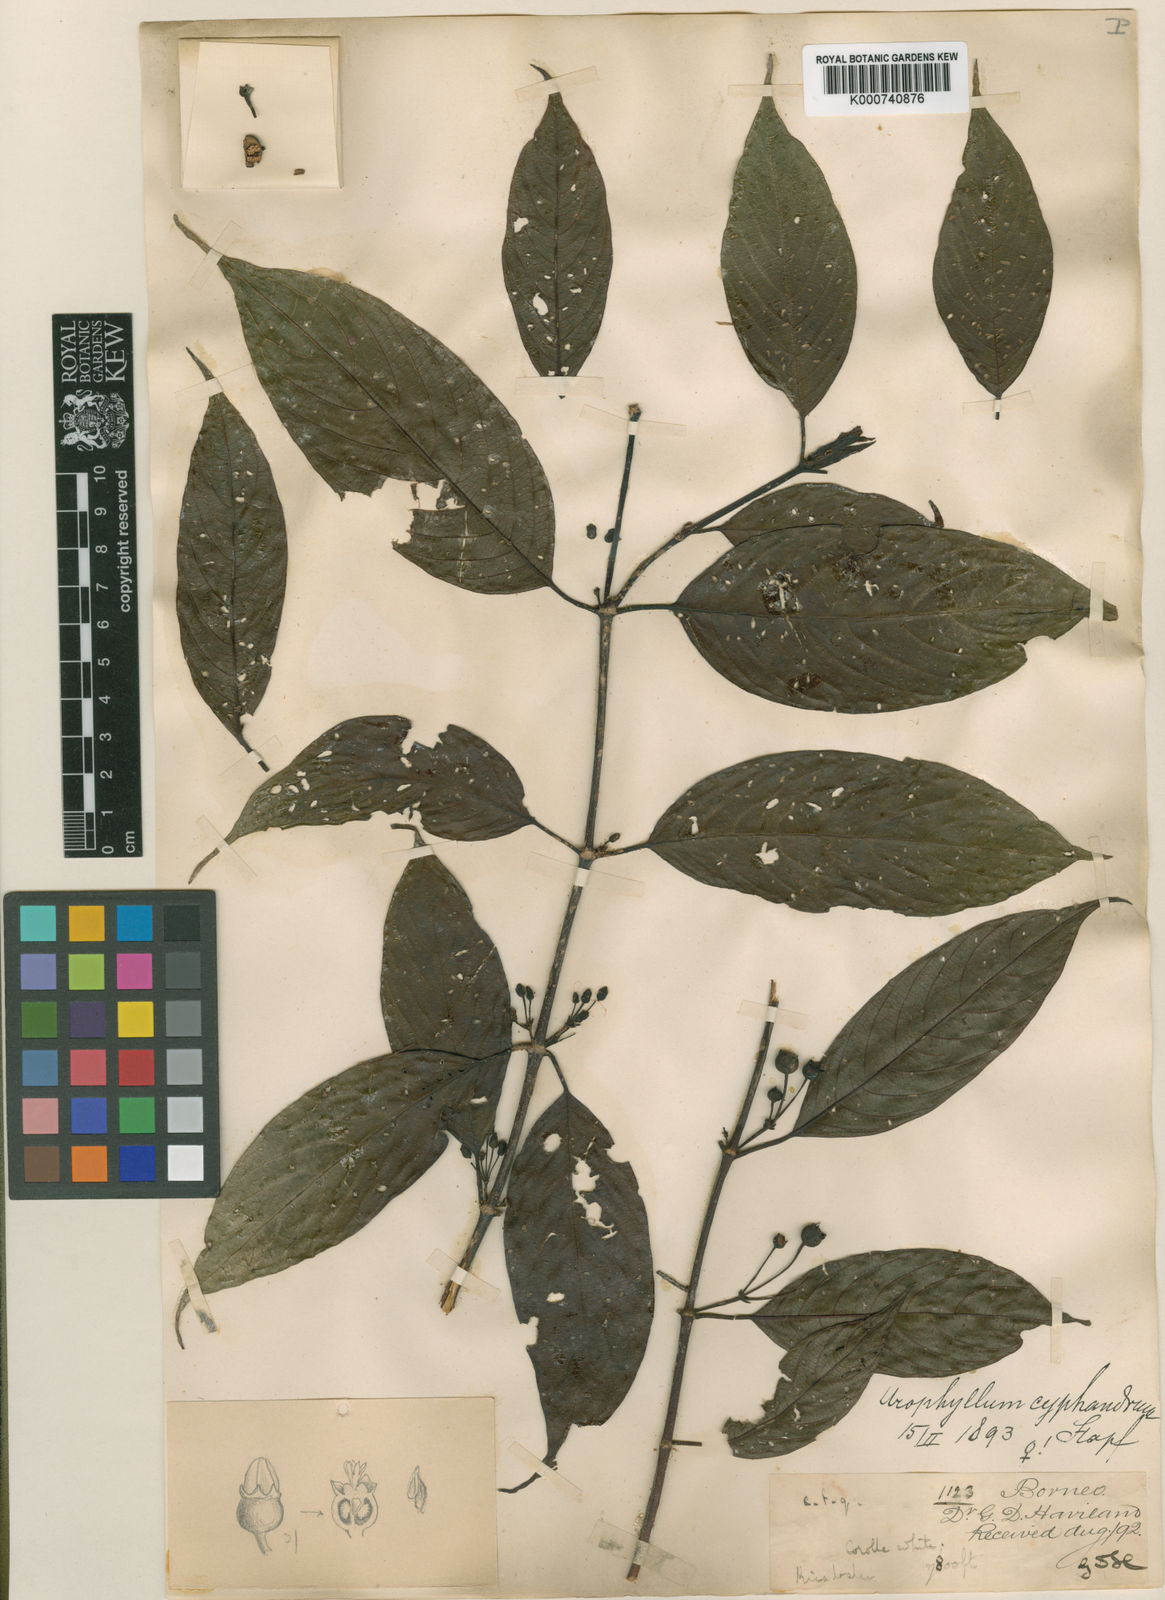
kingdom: Plantae
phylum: Tracheophyta
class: Magnoliopsida
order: Gentianales
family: Rubiaceae
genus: Urophyllum
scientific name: Urophyllum cyphandrum
